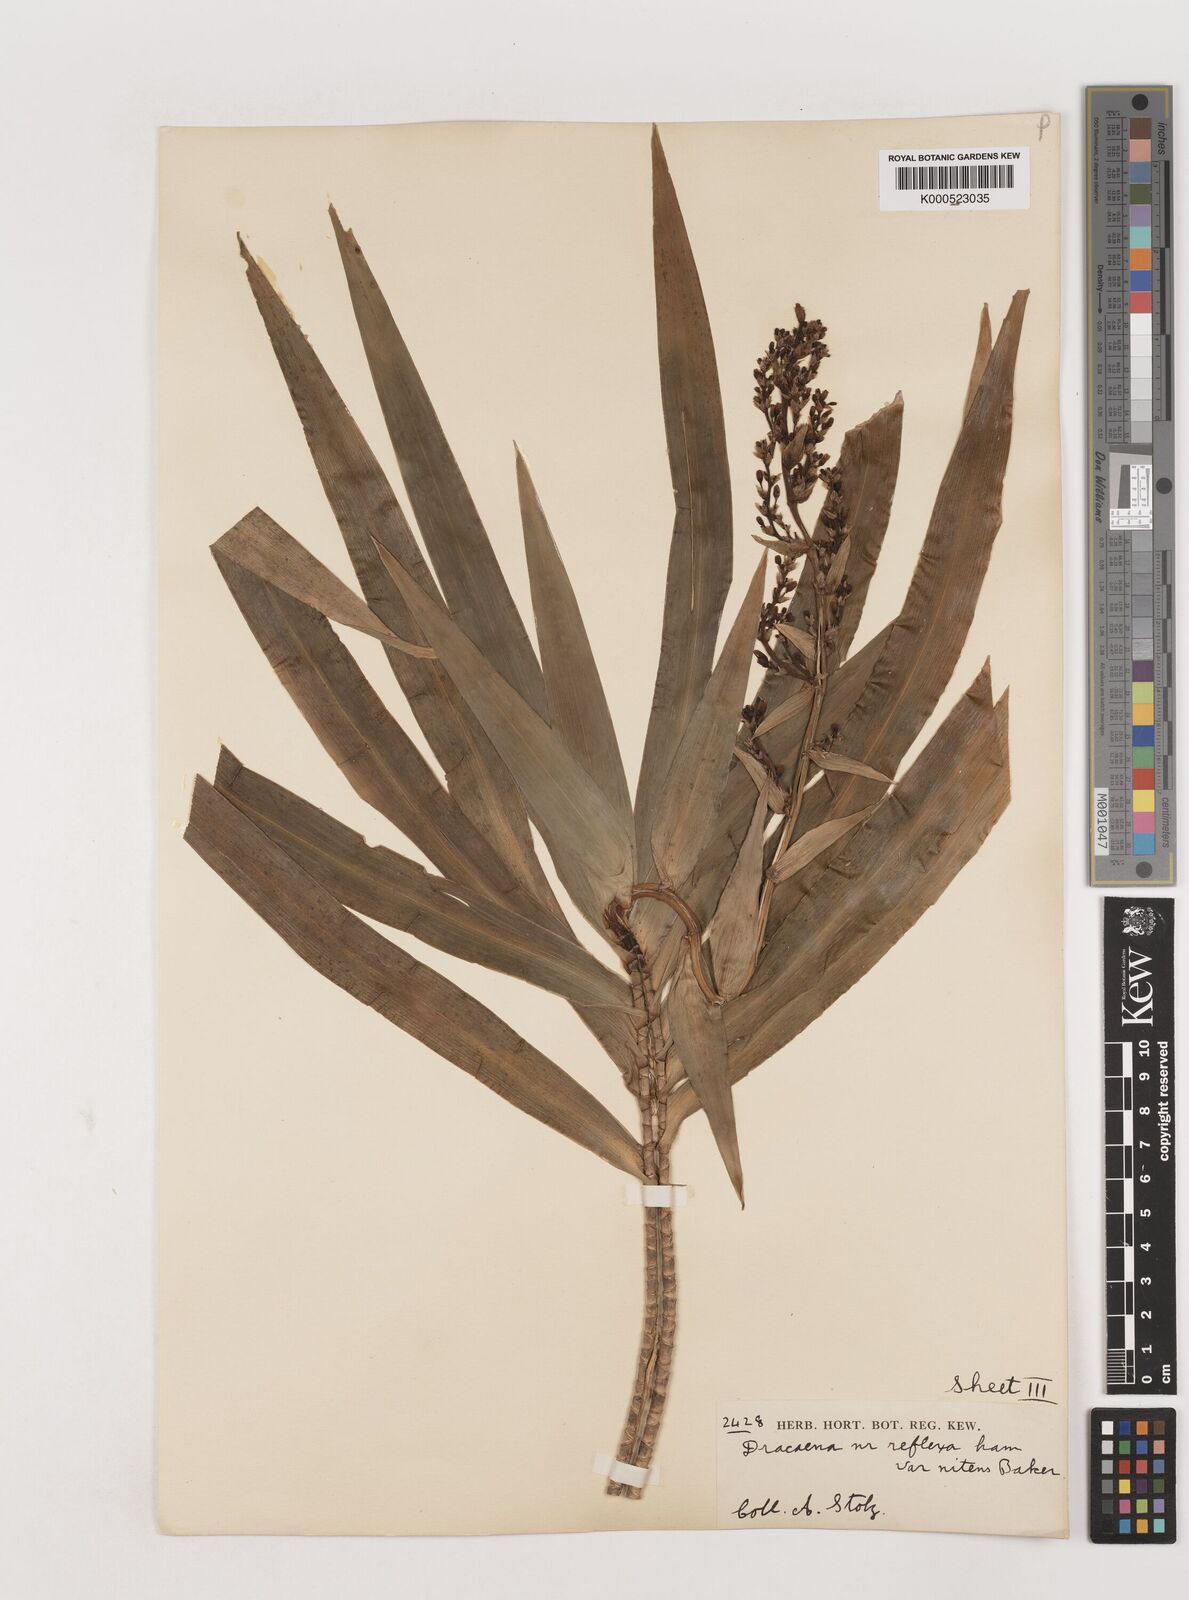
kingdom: Plantae
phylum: Tracheophyta
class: Liliopsida
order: Asparagales
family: Asparagaceae
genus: Dracaena
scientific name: Dracaena afromontana
